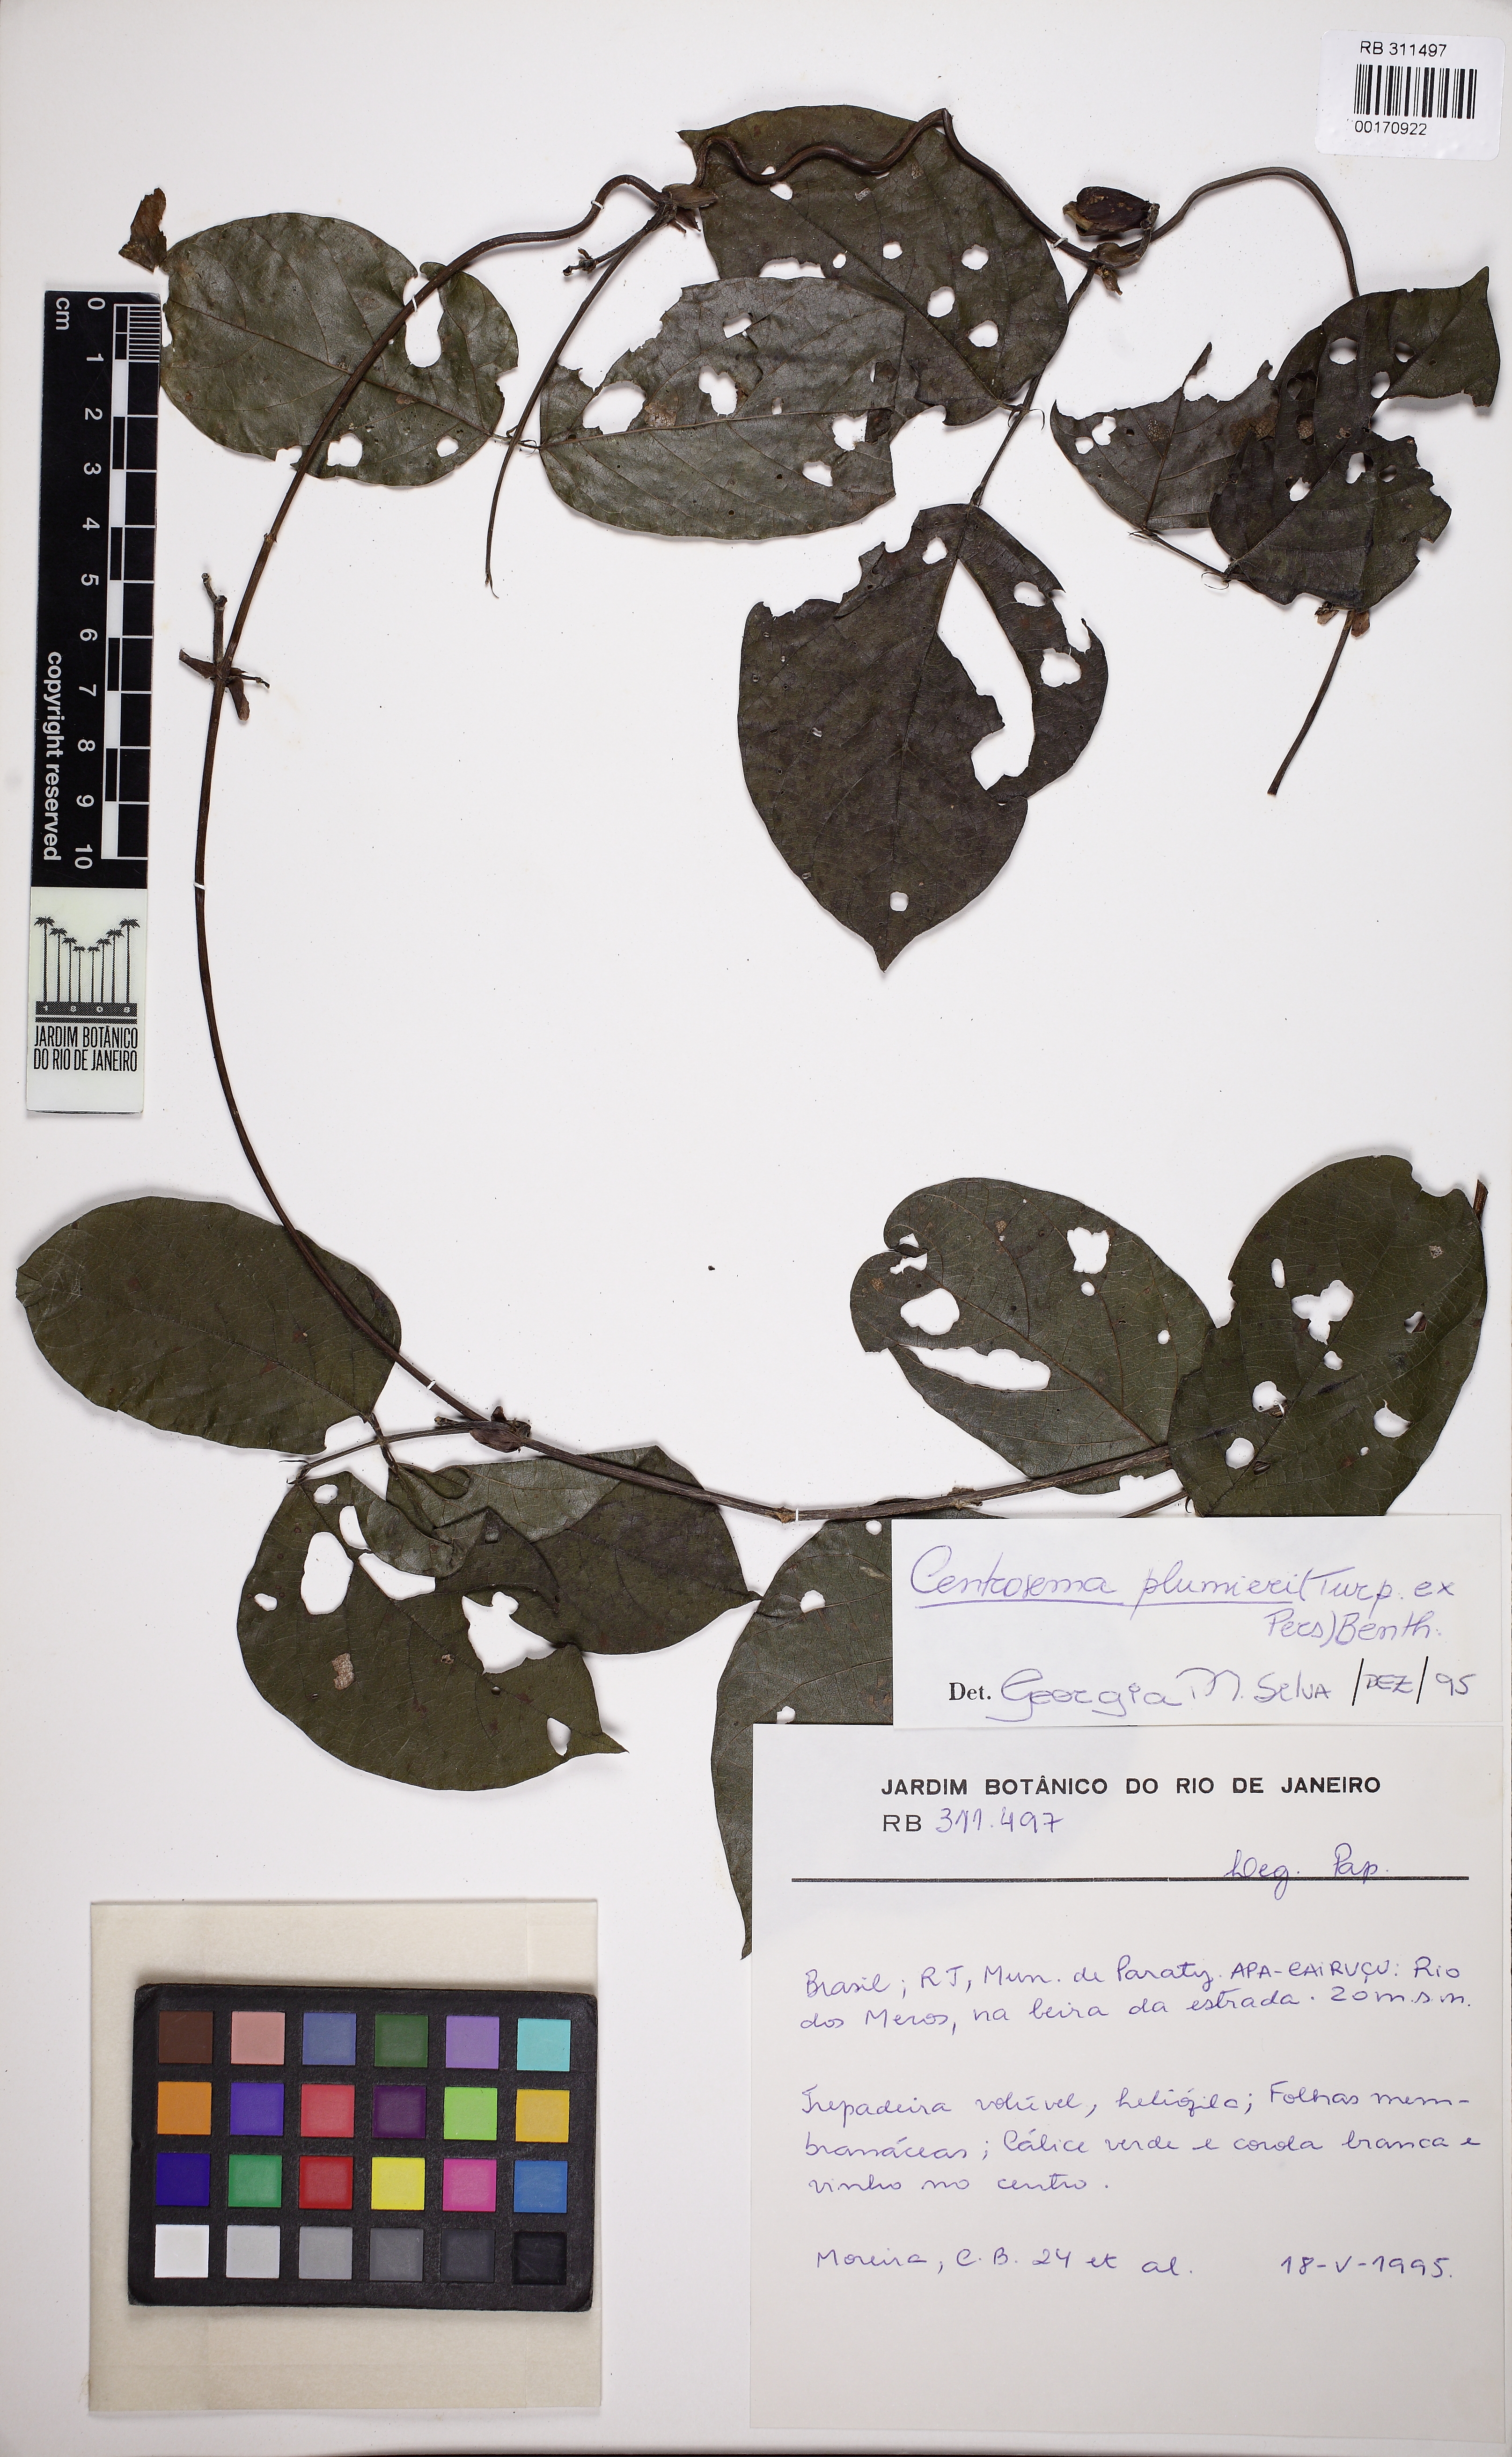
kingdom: Plantae
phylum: Tracheophyta
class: Magnoliopsida
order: Fabales
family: Fabaceae
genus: Centrosema
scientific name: Centrosema plumieri
